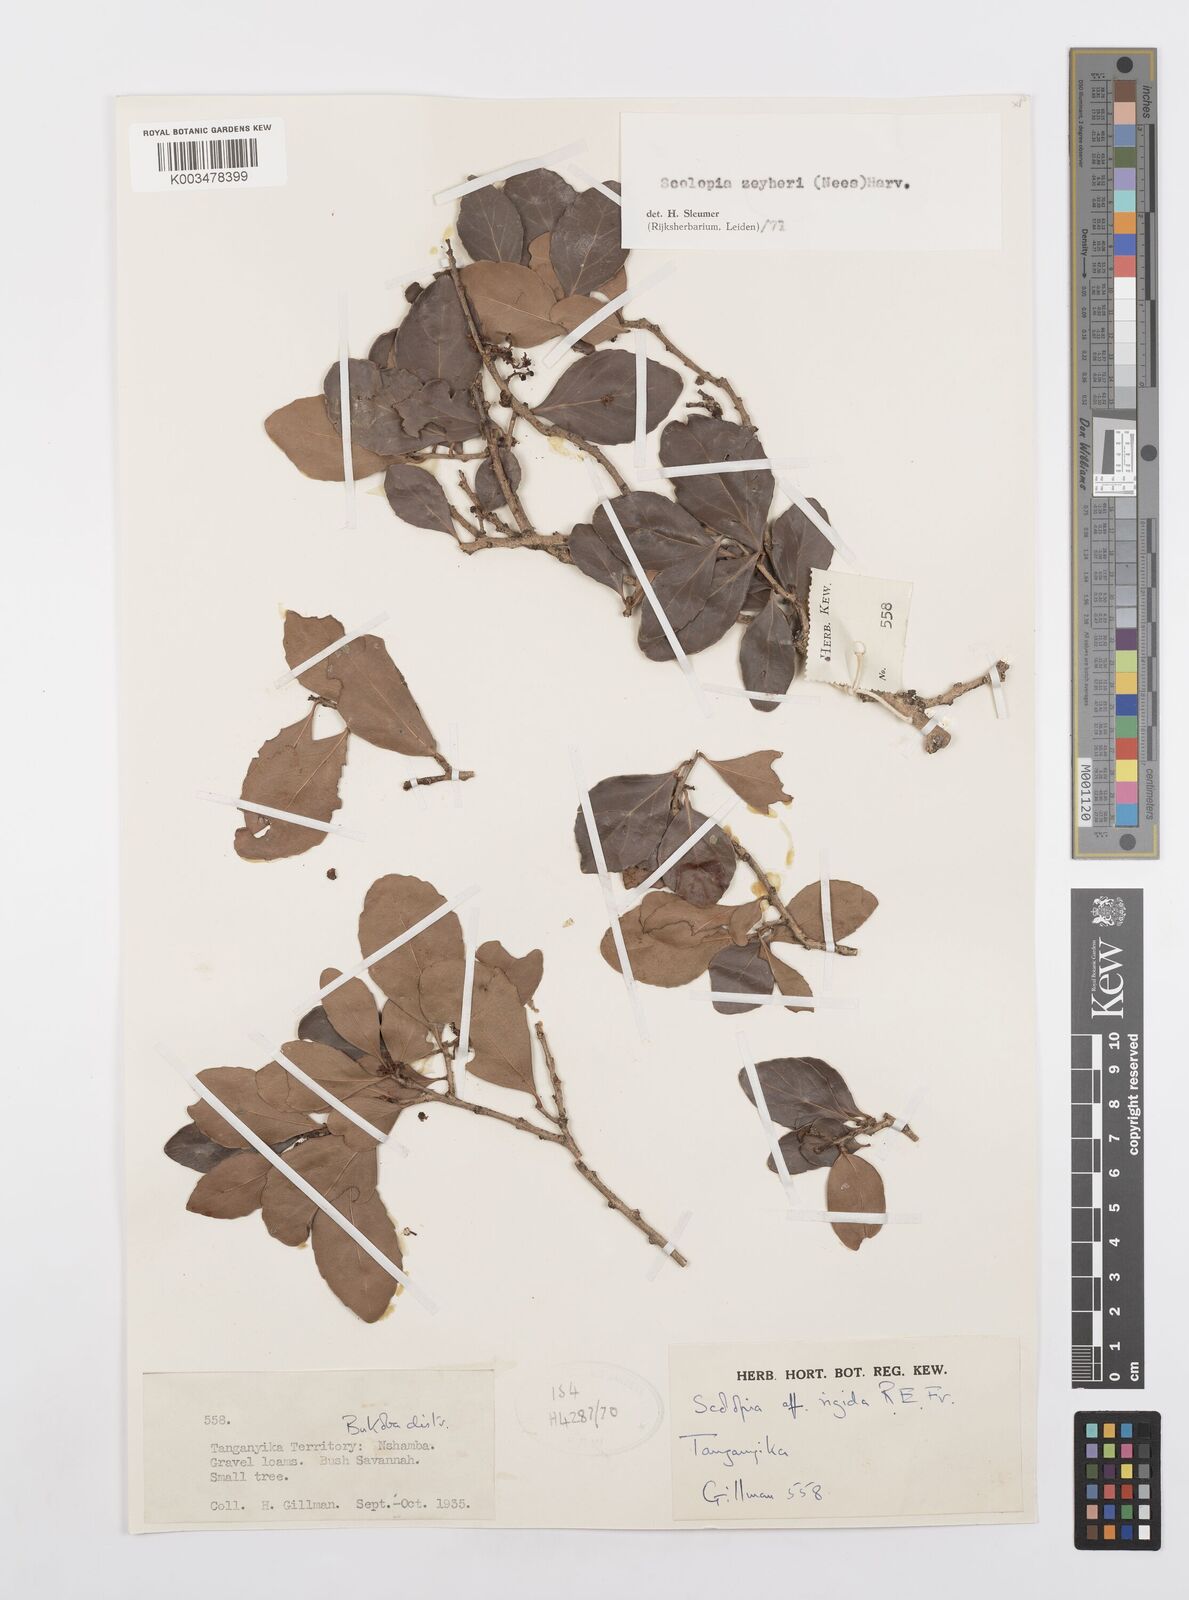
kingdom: Plantae
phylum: Tracheophyta
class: Magnoliopsida
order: Malpighiales
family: Salicaceae
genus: Scolopia
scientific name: Scolopia zeyheri
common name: Thorn pear
